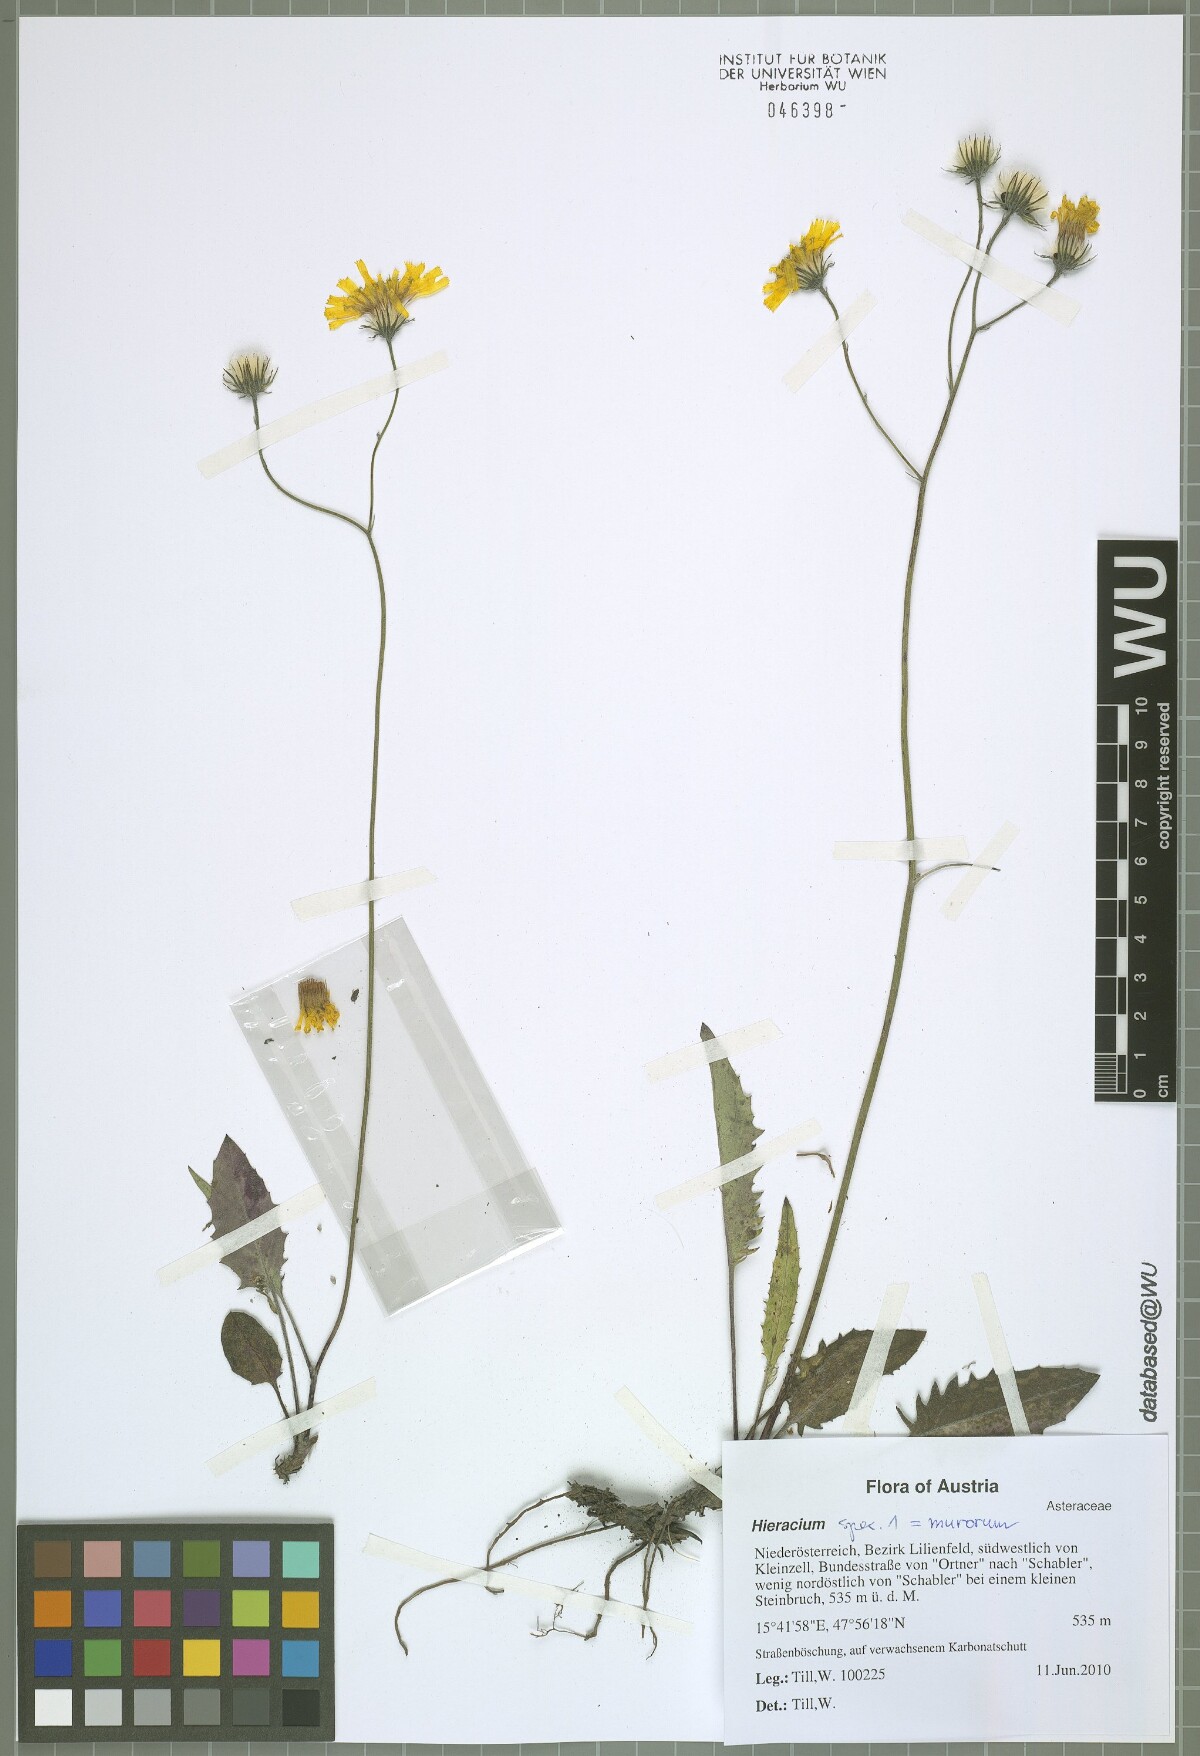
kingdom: Plantae
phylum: Tracheophyta
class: Magnoliopsida
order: Asterales
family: Asteraceae
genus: Hieracium
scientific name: Hieracium bifidum
